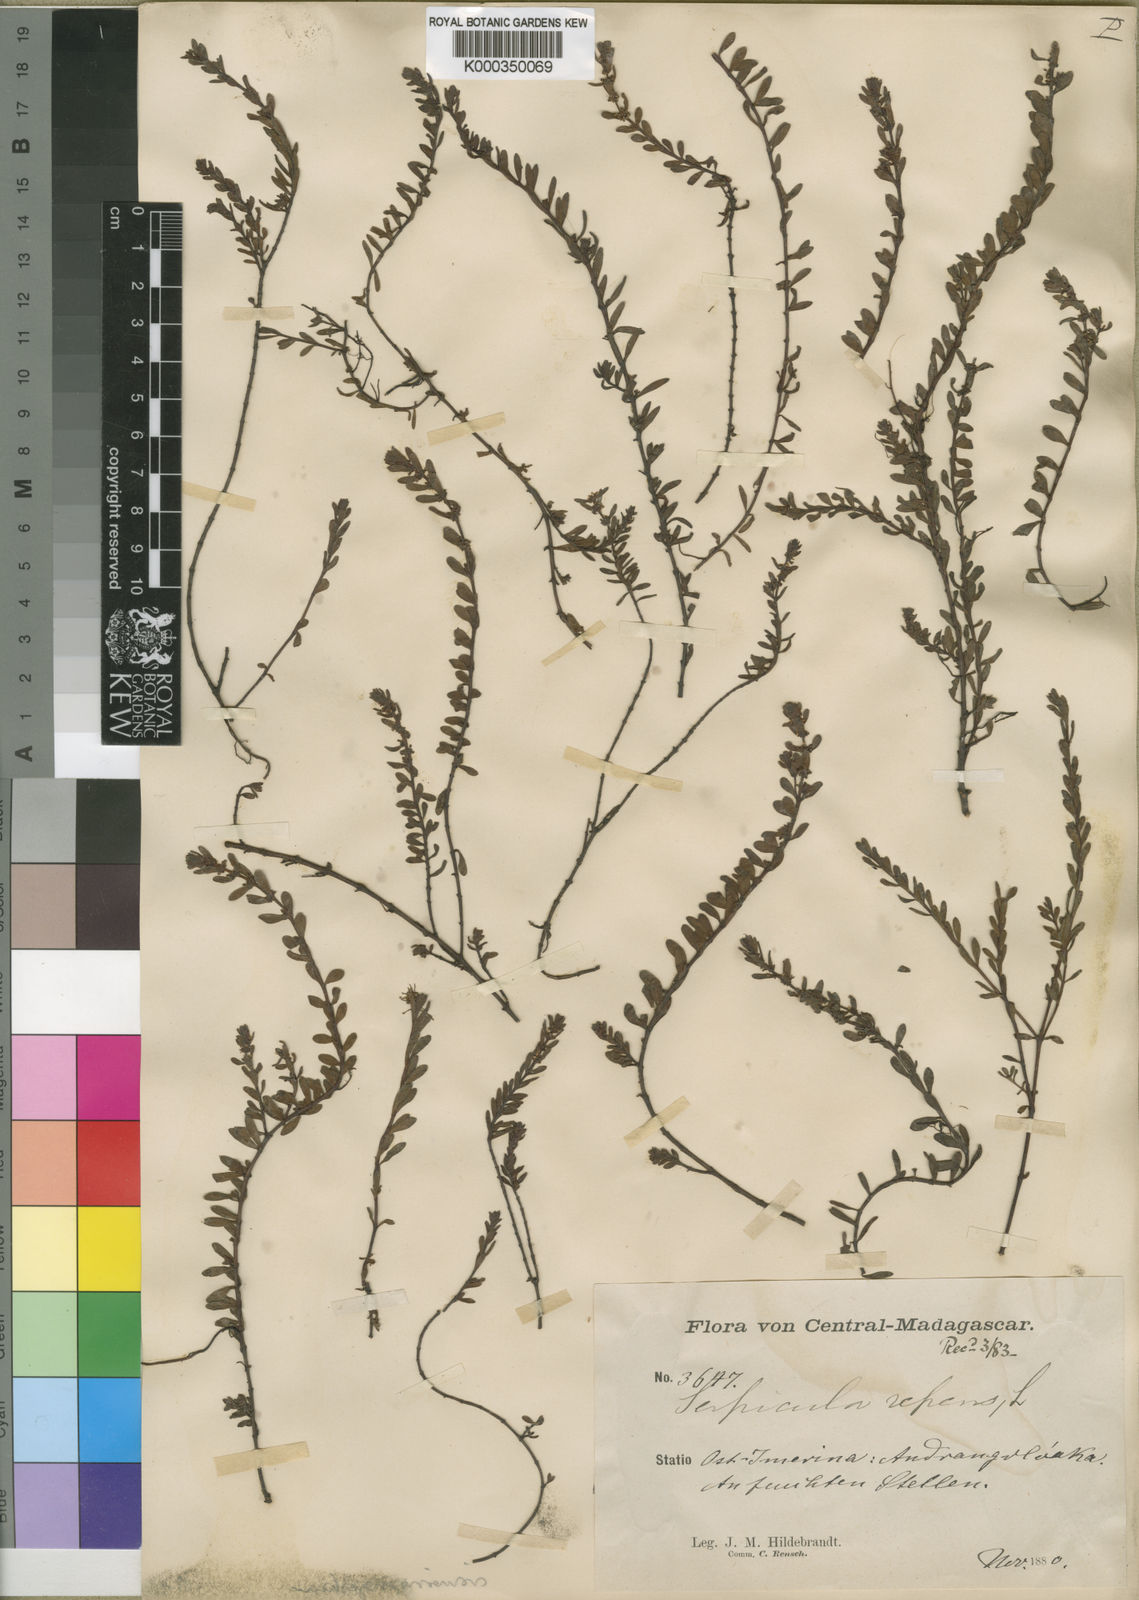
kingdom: Plantae
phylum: Tracheophyta
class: Magnoliopsida
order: Saxifragales
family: Haloragaceae
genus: Laurembergia
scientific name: Laurembergia repens
